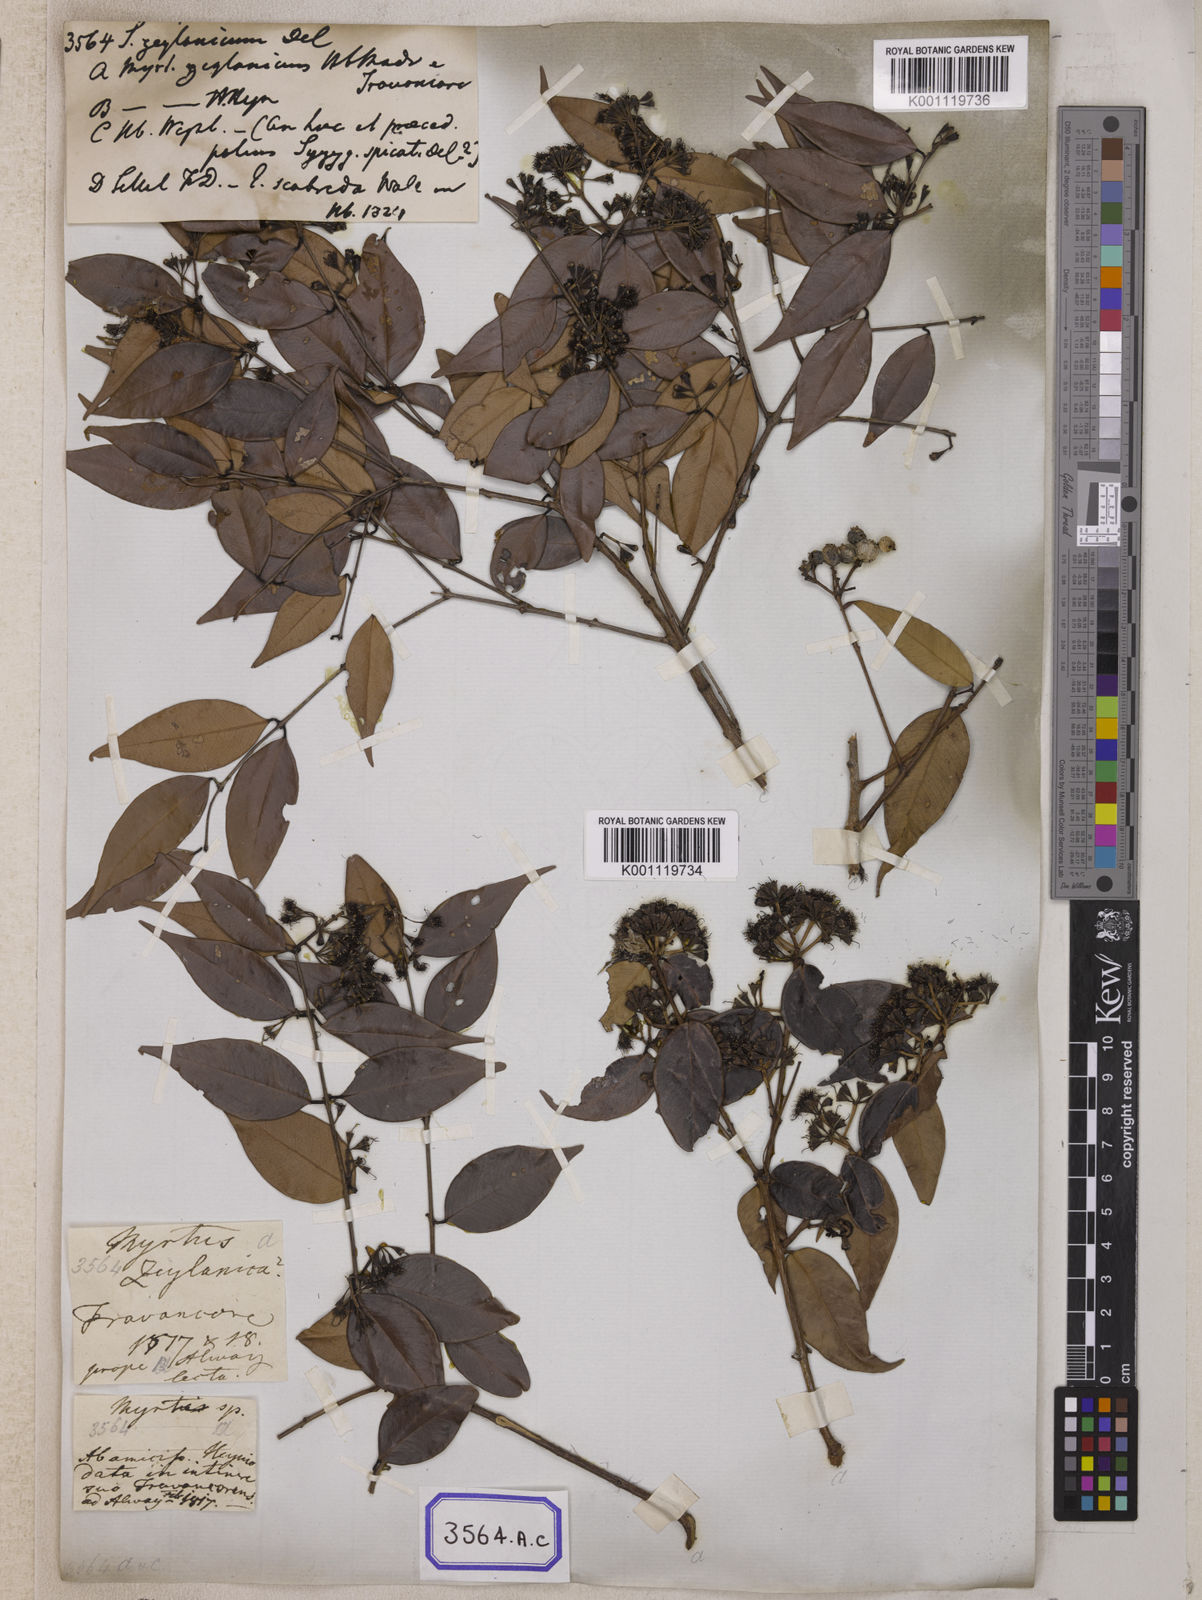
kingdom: Plantae
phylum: Tracheophyta
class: Magnoliopsida
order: Myrtales
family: Myrtaceae
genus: Syzygium
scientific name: Syzygium zeylanicum
